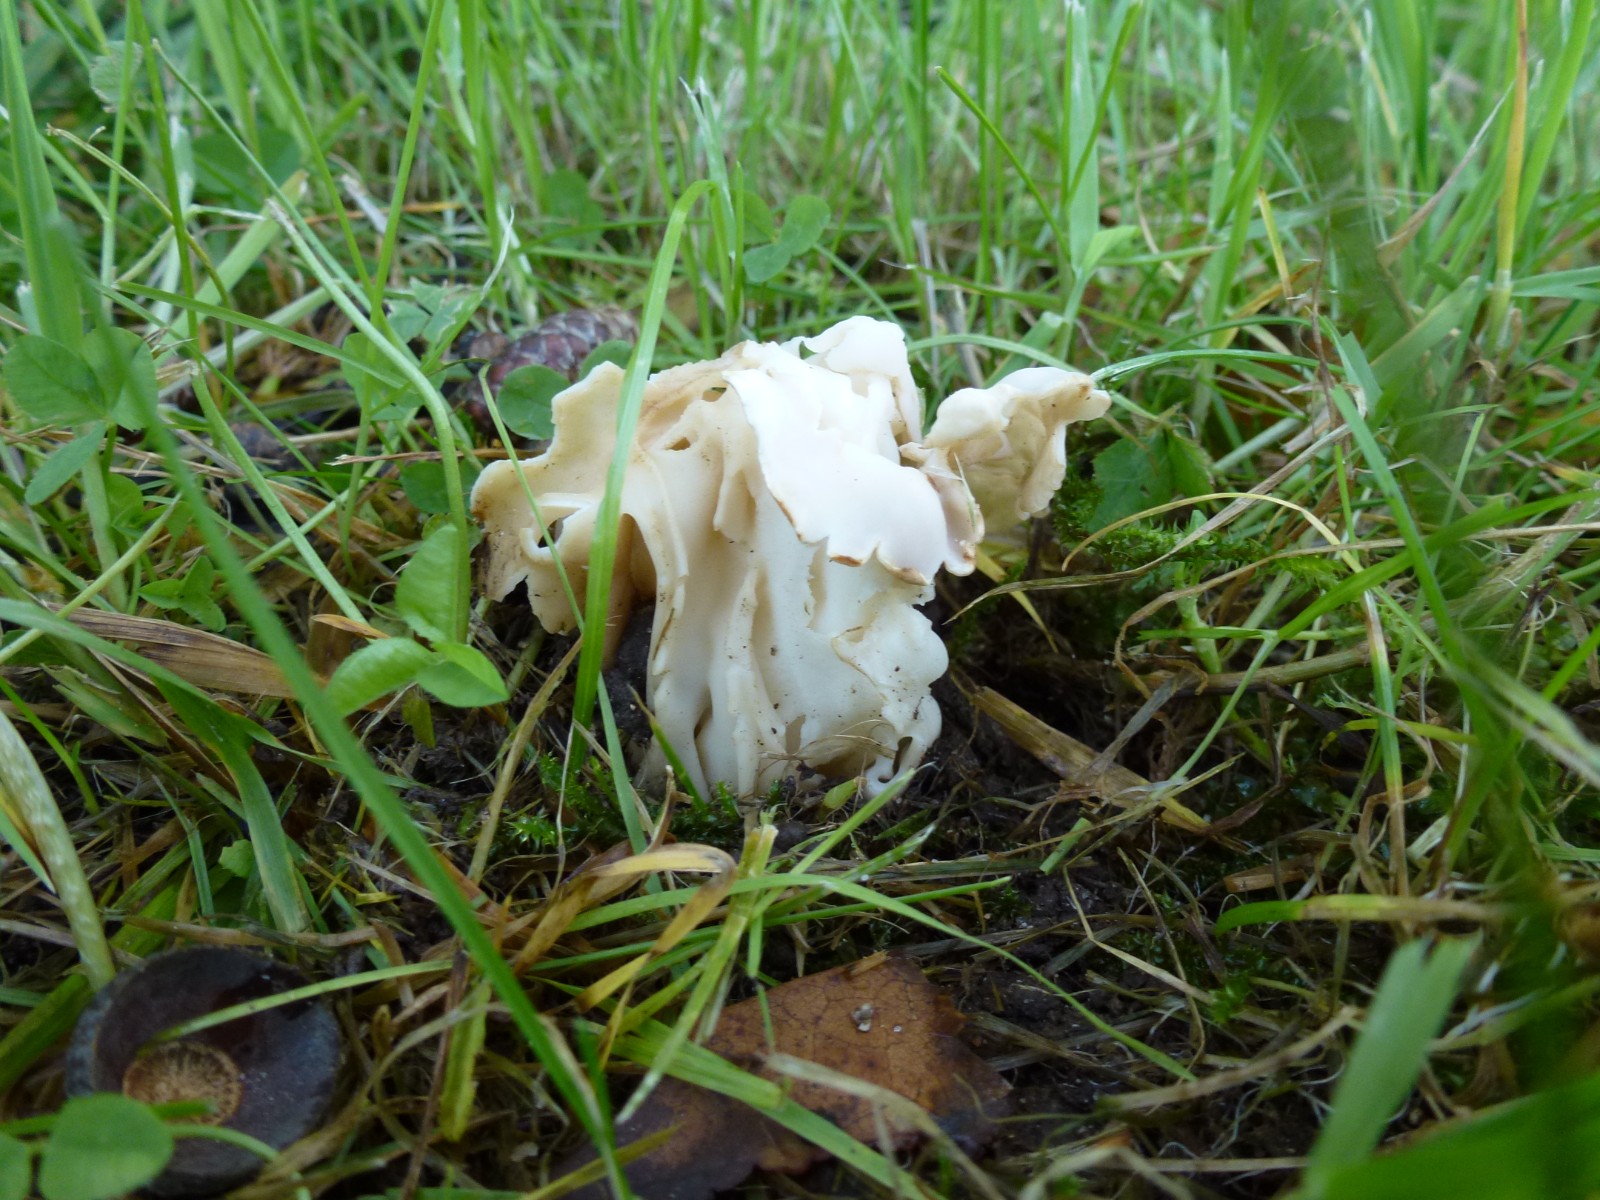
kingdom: Fungi
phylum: Ascomycota
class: Pezizomycetes
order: Pezizales
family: Helvellaceae
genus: Helvella
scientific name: Helvella crispa
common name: kruset foldhat
